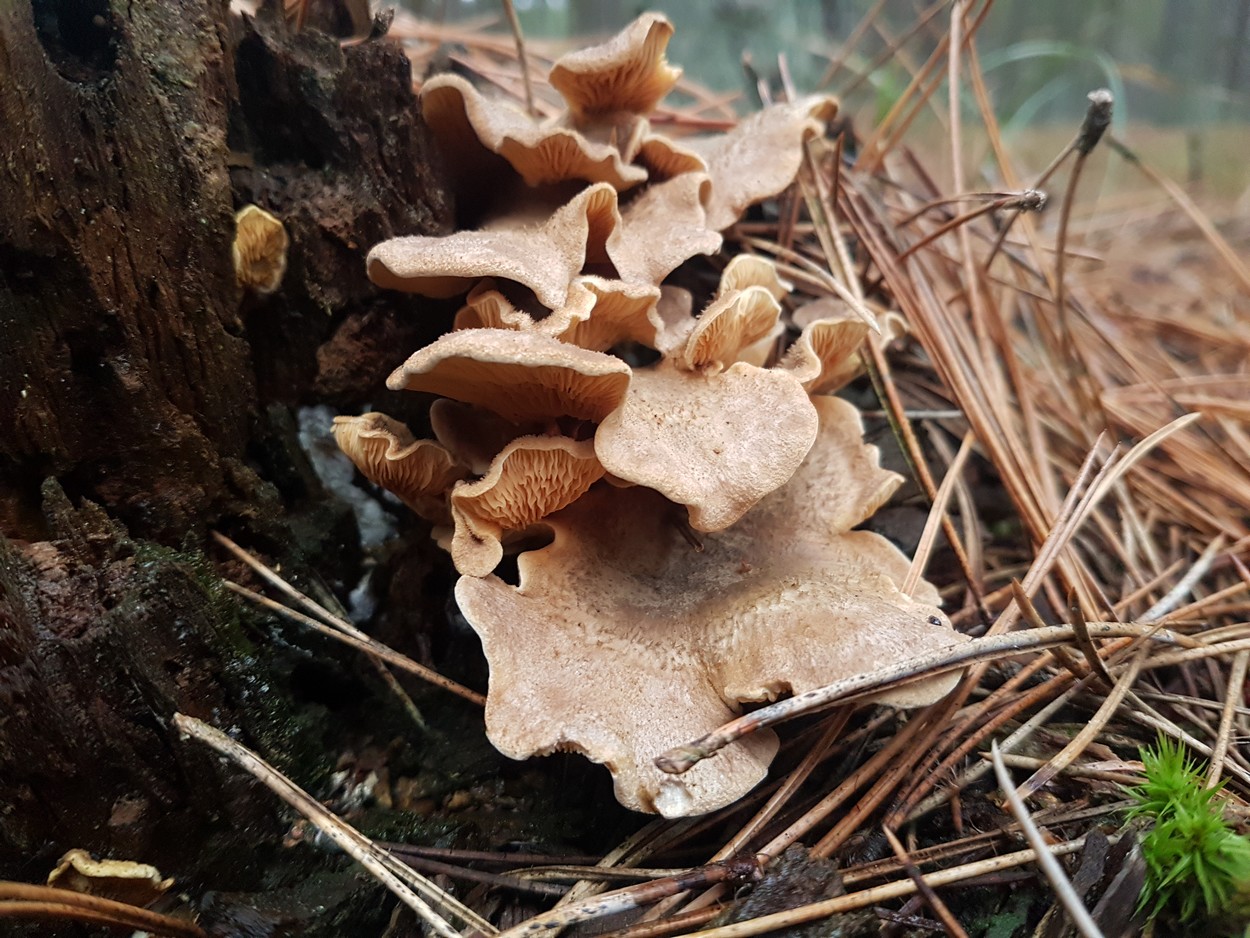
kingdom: Fungi
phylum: Basidiomycota
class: Agaricomycetes
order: Boletales
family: Tapinellaceae
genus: Tapinella
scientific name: Tapinella panuoides
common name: tømmer-viftesvamp
